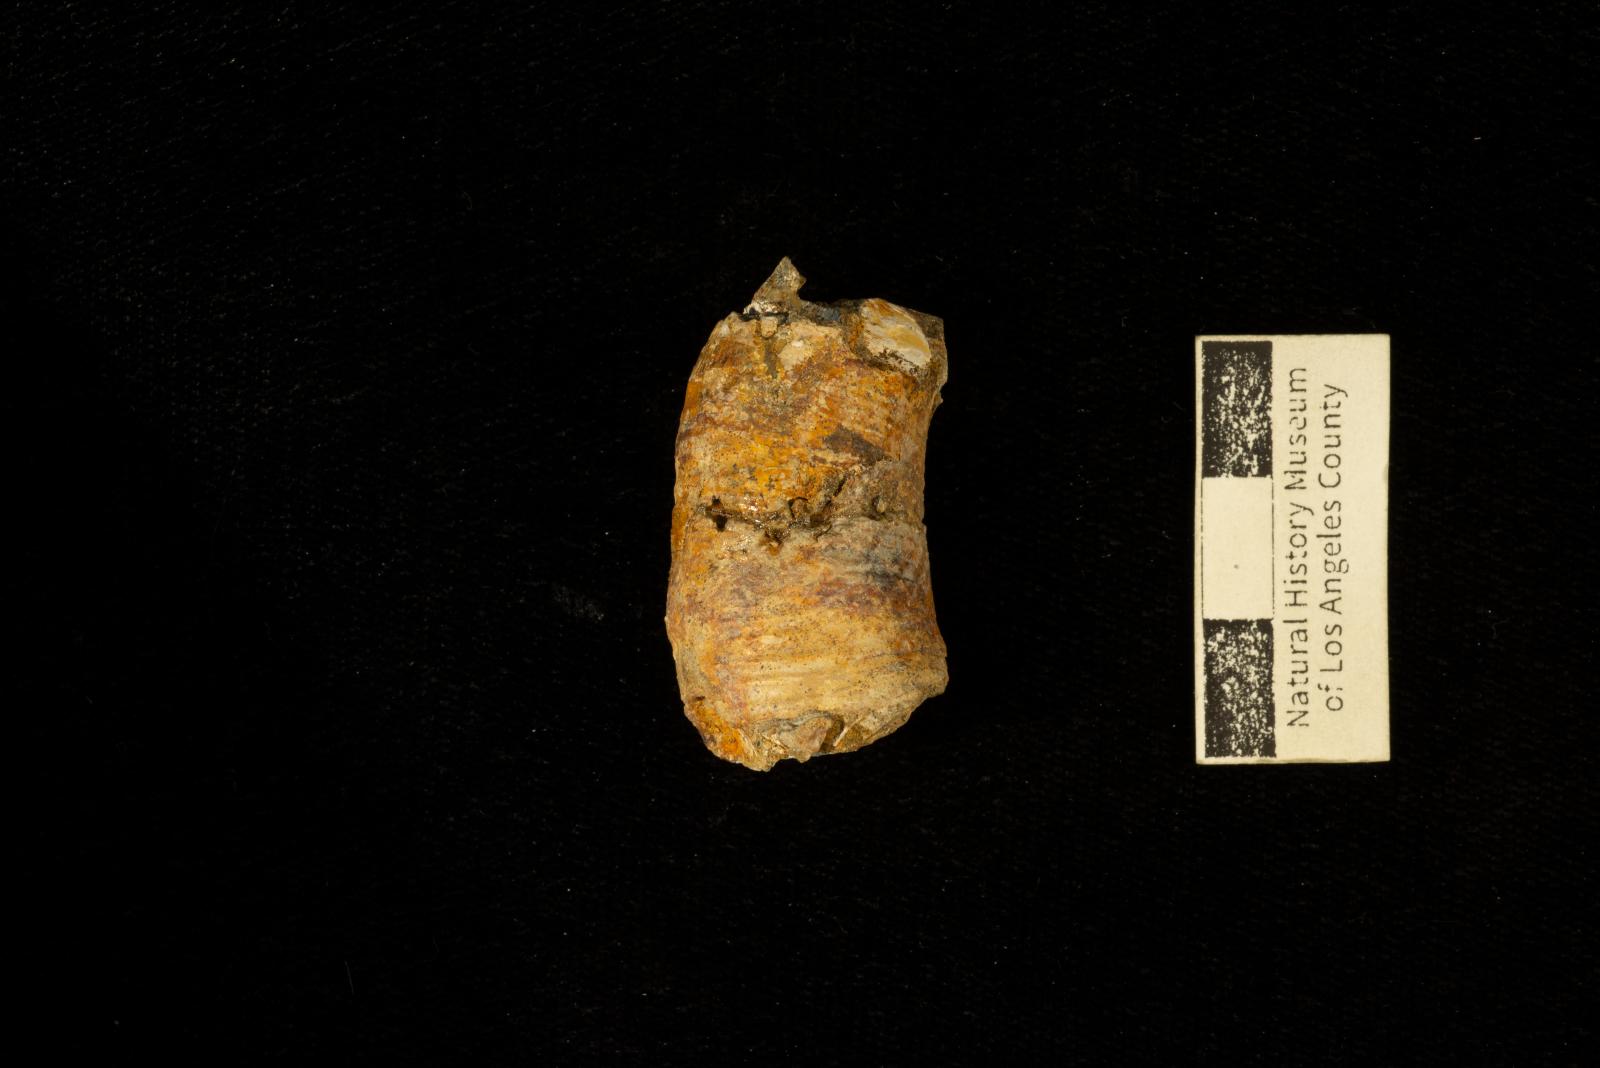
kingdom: Animalia
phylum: Mollusca
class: Cephalopoda
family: Nostoceratidae
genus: Bostrychoceras
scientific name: Bostrychoceras Heteroceras otsukai
